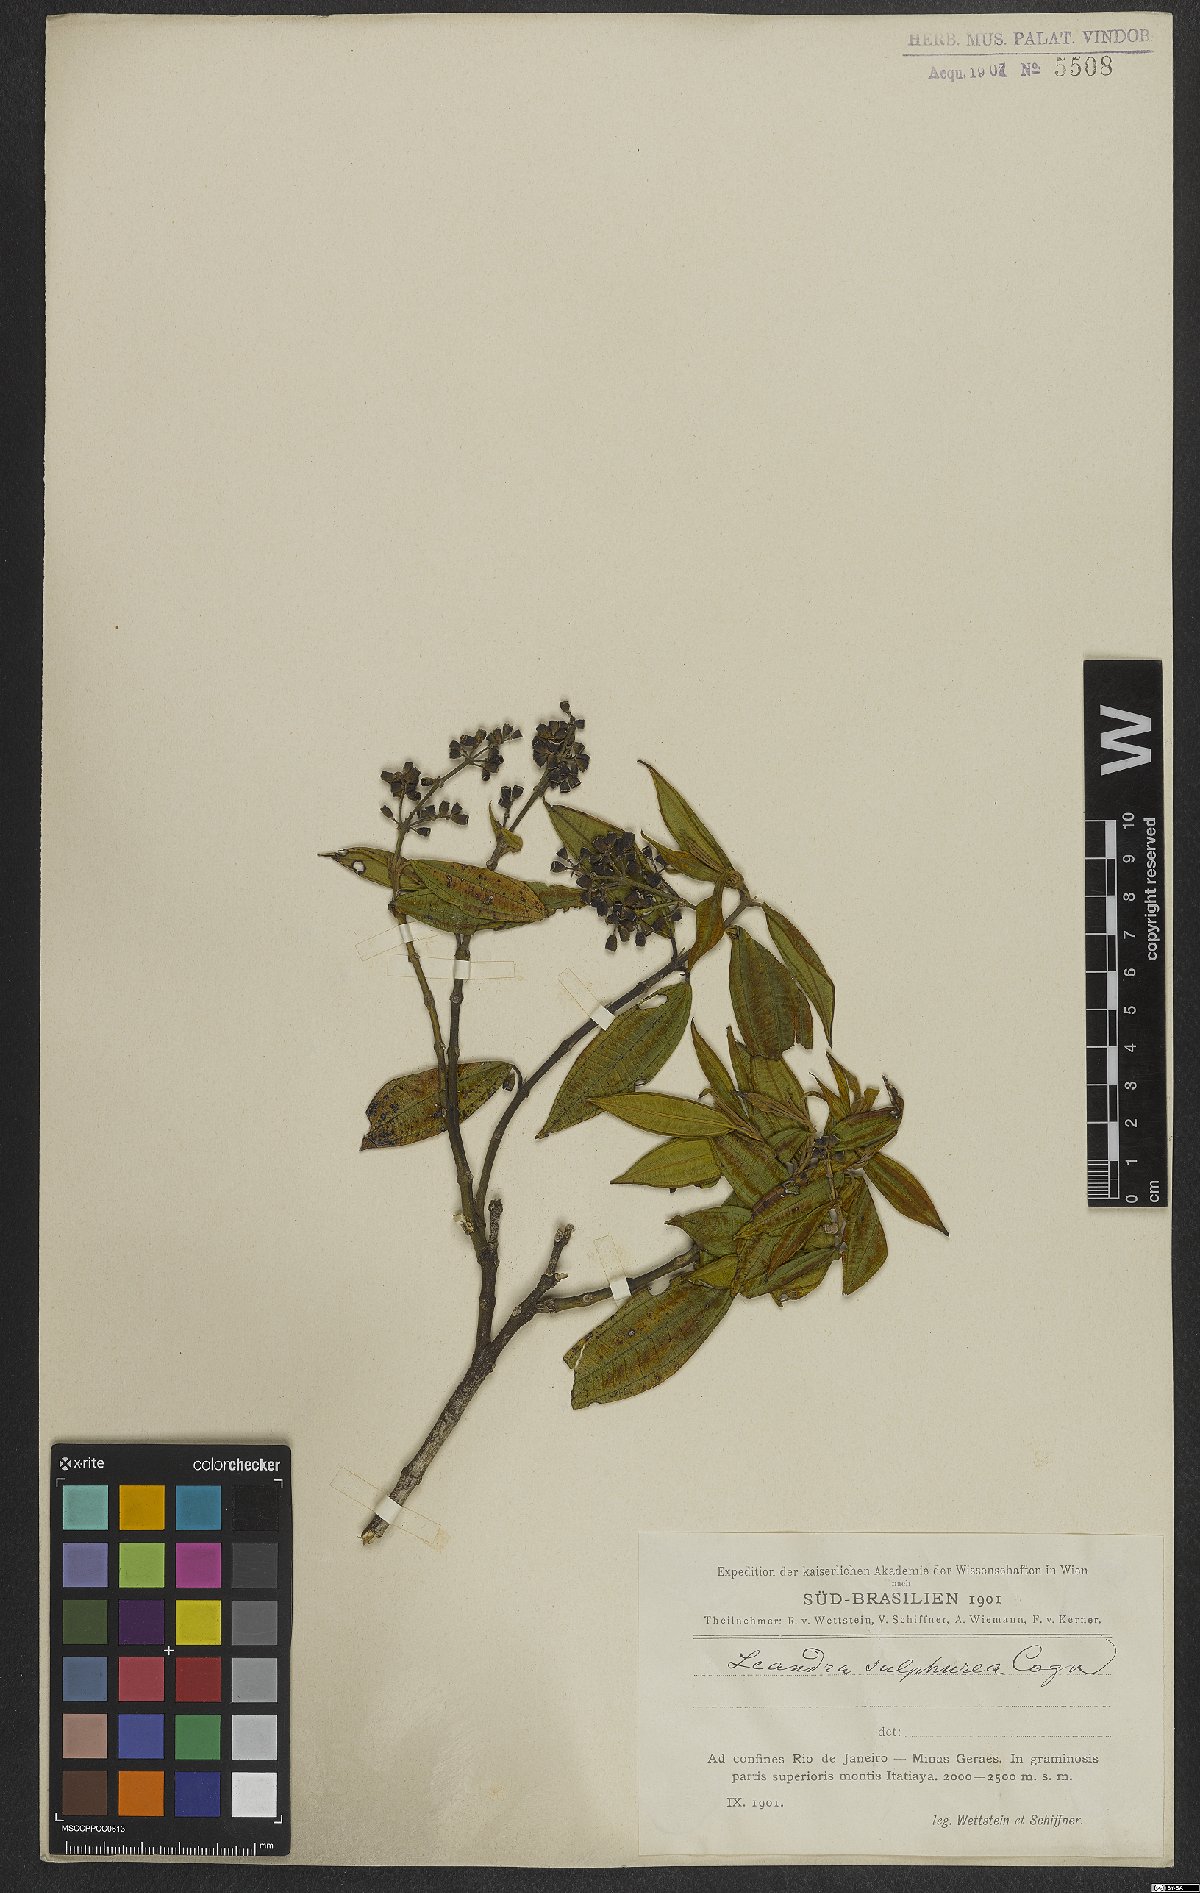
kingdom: Plantae
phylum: Tracheophyta
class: Magnoliopsida
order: Myrtales
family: Melastomataceae
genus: Miconia
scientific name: Miconia sulfurea
